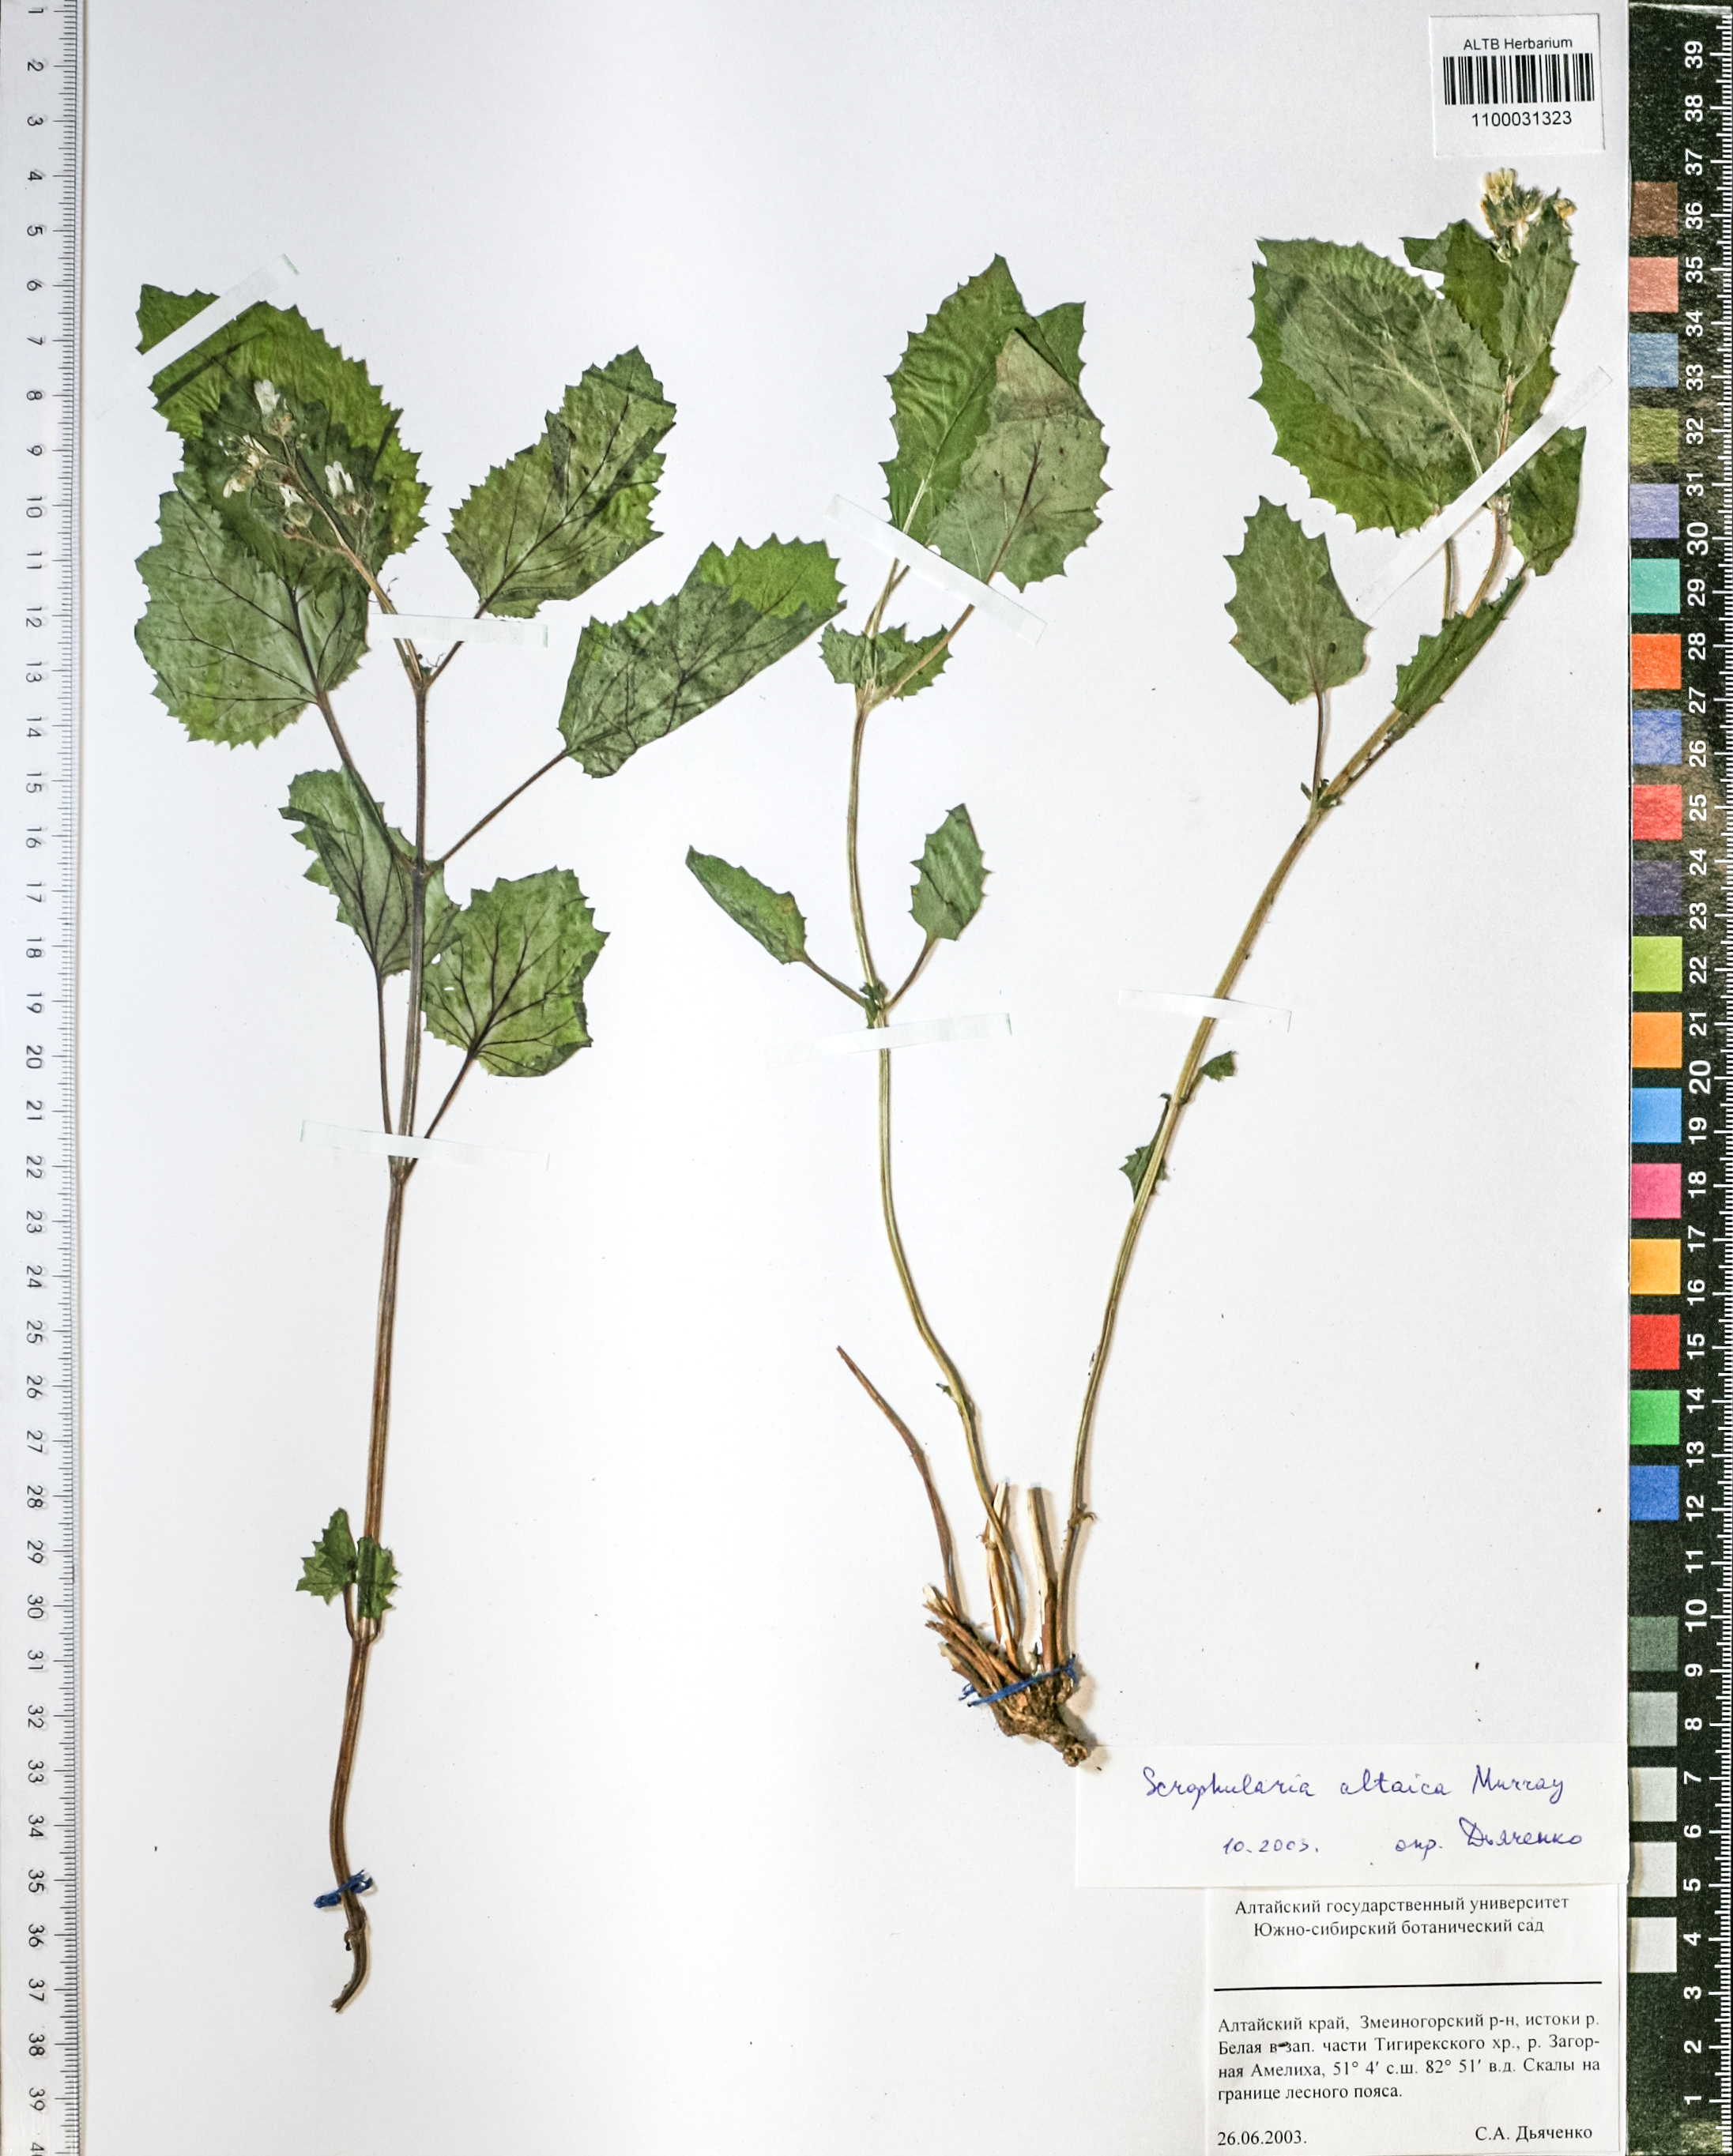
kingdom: Plantae
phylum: Tracheophyta
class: Magnoliopsida
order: Lamiales
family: Scrophulariaceae
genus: Scrophularia
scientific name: Scrophularia altaica
